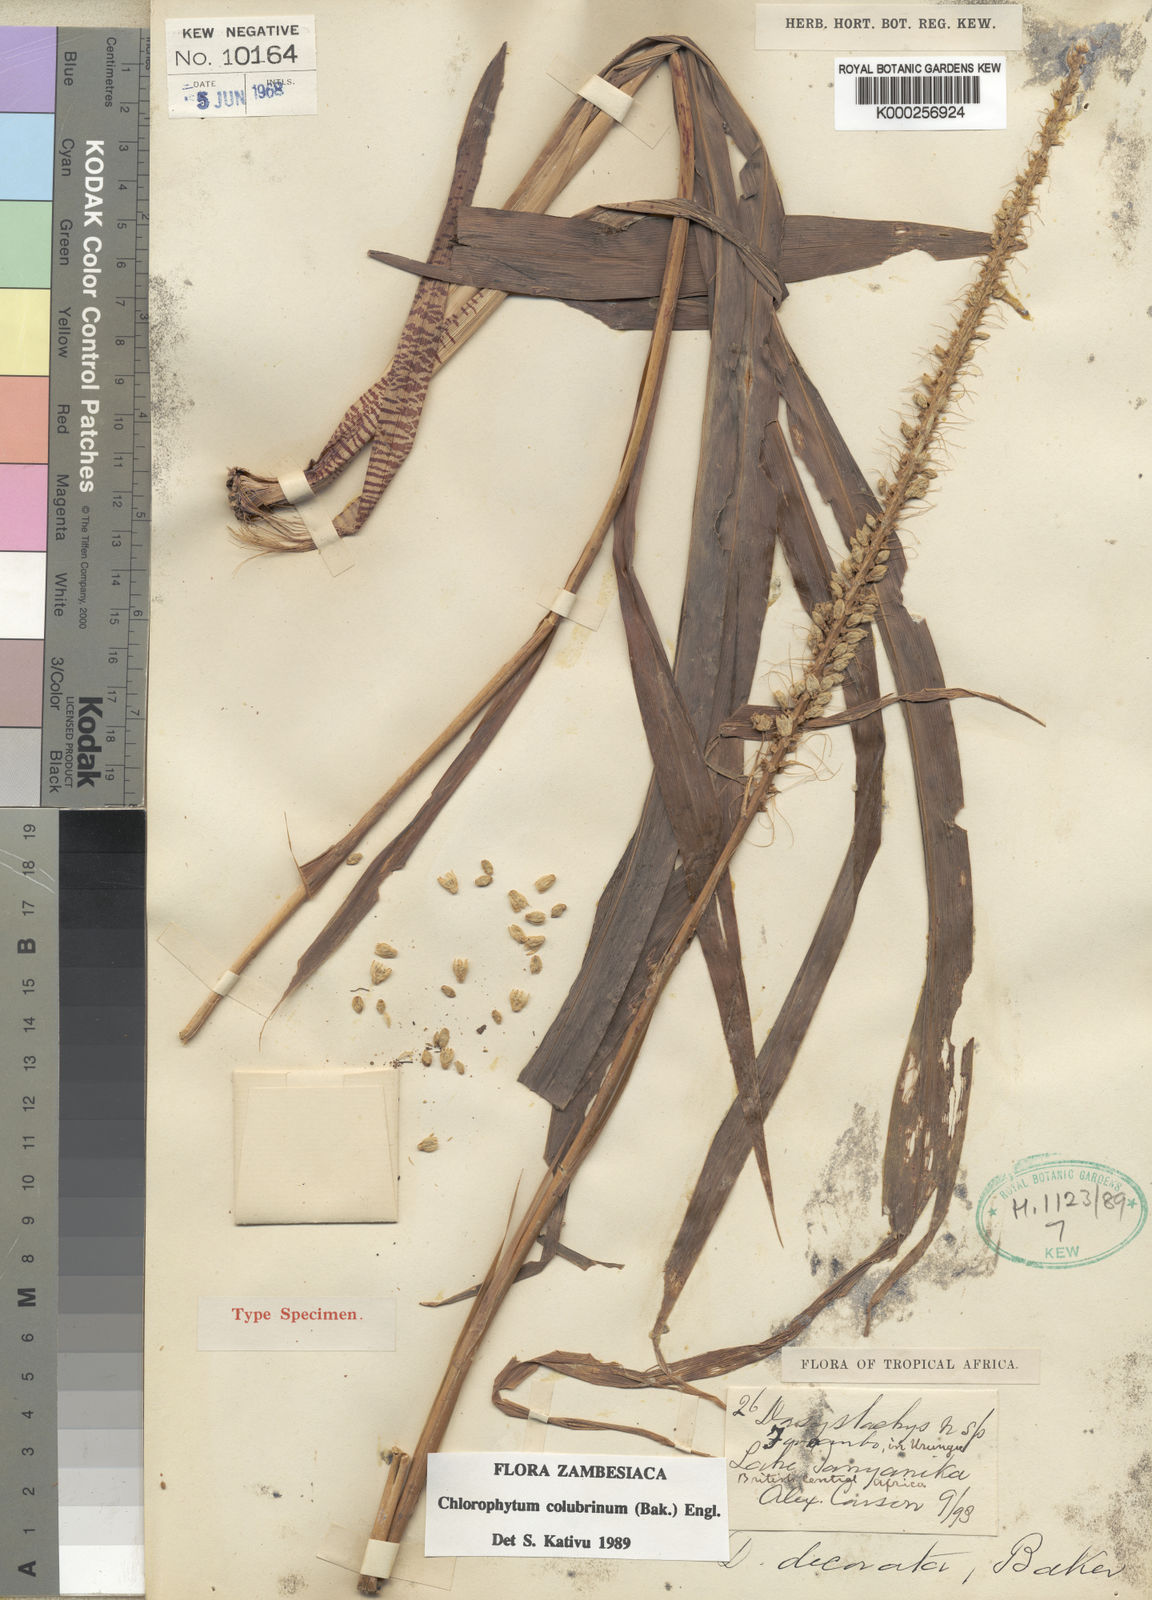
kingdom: Plantae
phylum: Tracheophyta
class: Liliopsida
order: Asparagales
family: Asparagaceae
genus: Chlorophytum
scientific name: Chlorophytum colubrinum
